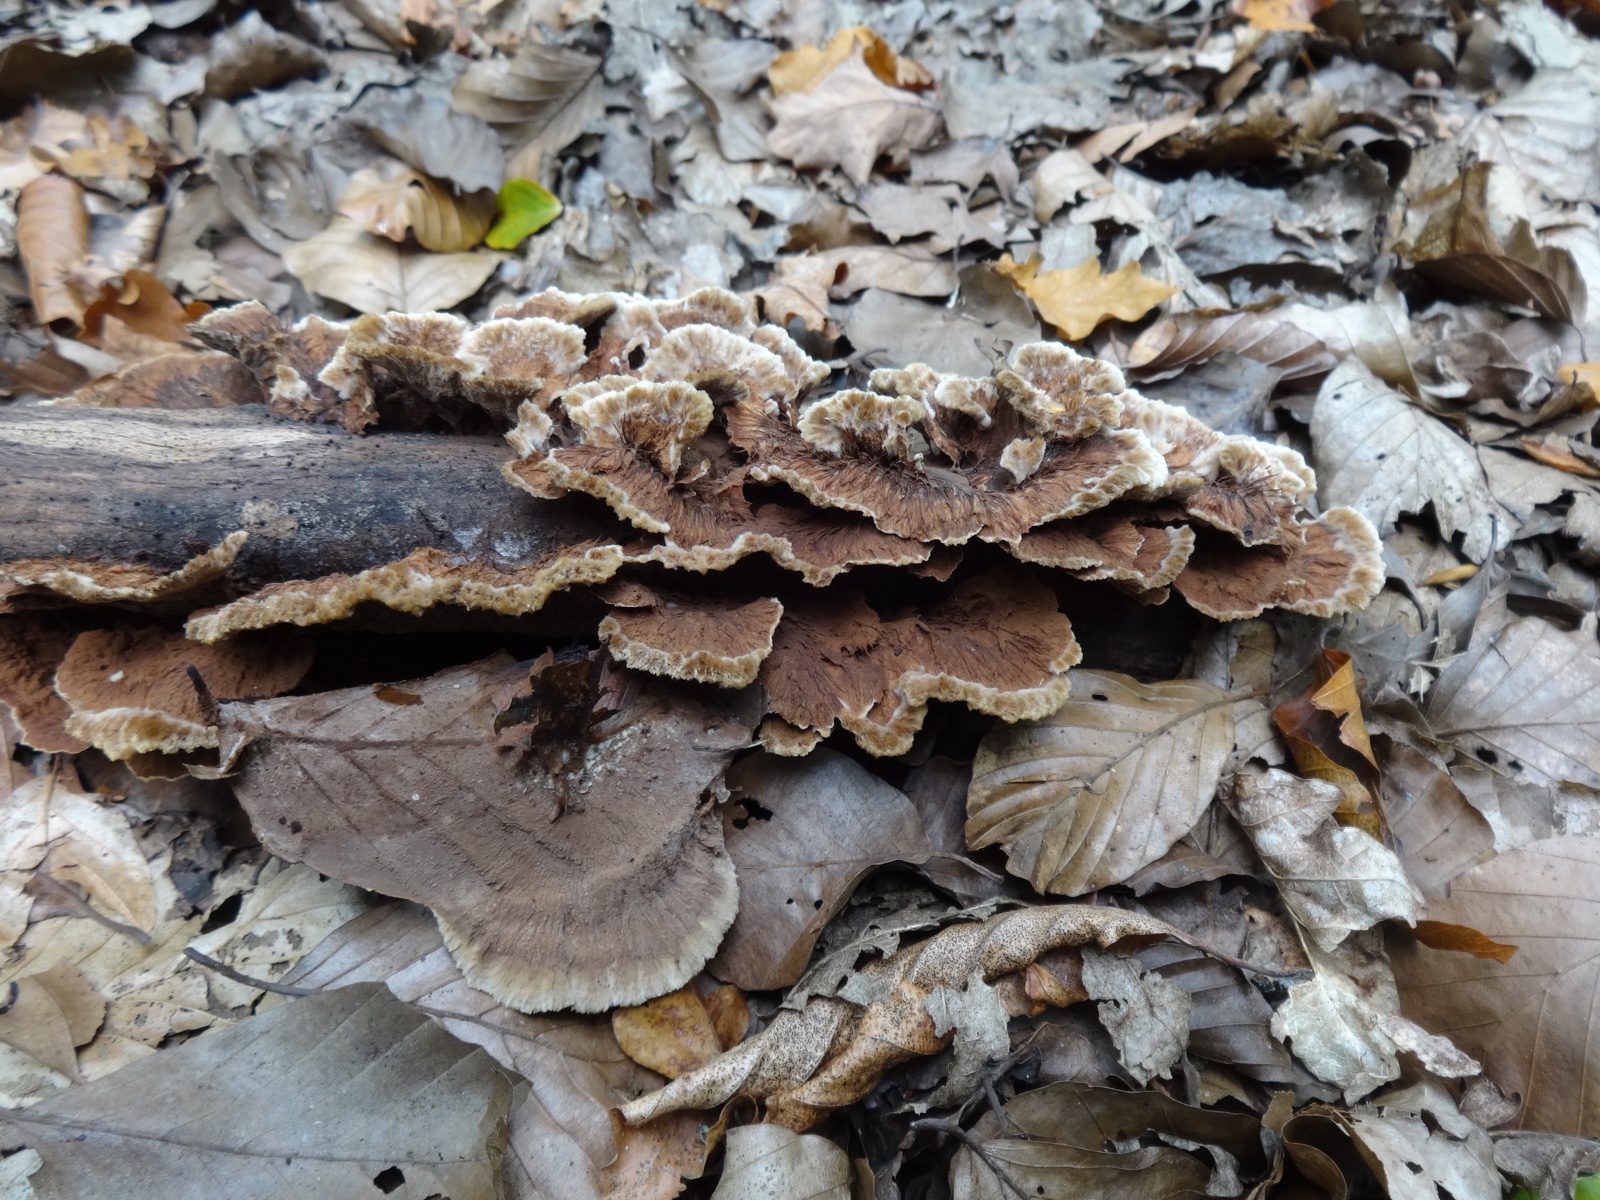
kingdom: Fungi
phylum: Basidiomycota
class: Agaricomycetes
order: Thelephorales
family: Thelephoraceae
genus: Thelephora
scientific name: Thelephora terrestris
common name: fliget frynsesvamp
